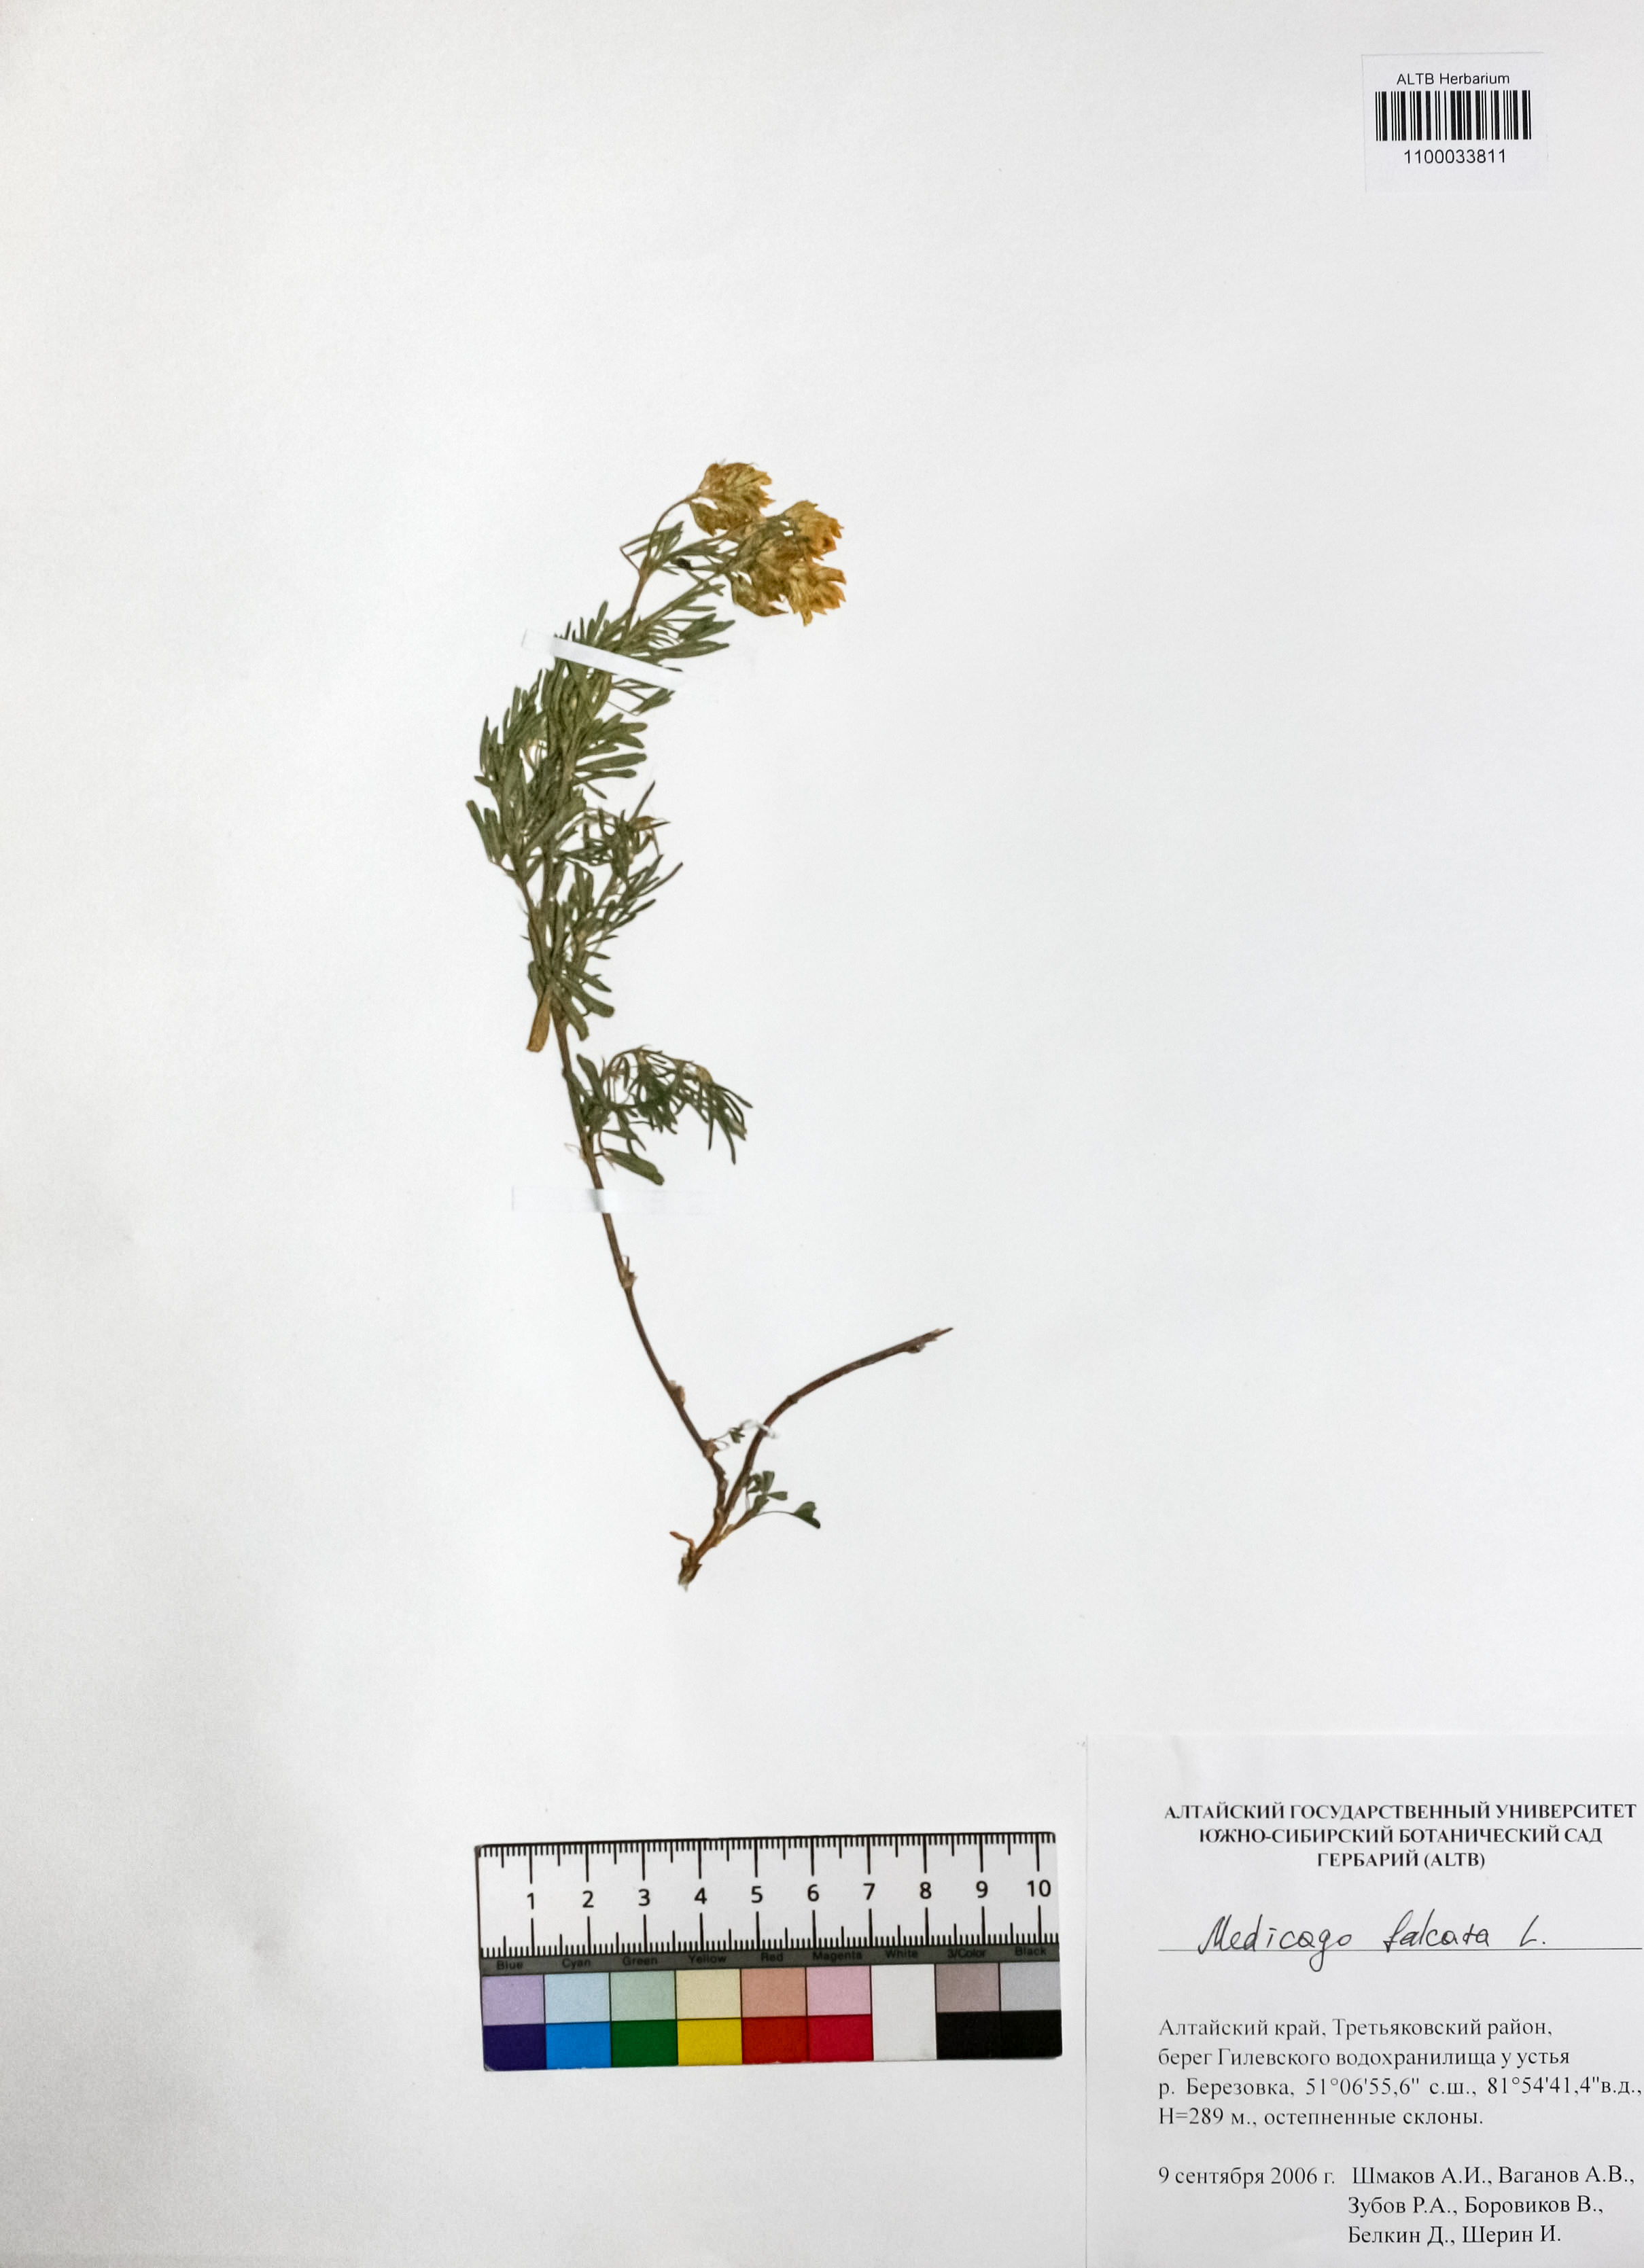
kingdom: Plantae
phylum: Tracheophyta
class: Magnoliopsida
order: Fabales
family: Fabaceae
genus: Medicago
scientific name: Medicago falcata
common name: Sickle medick
